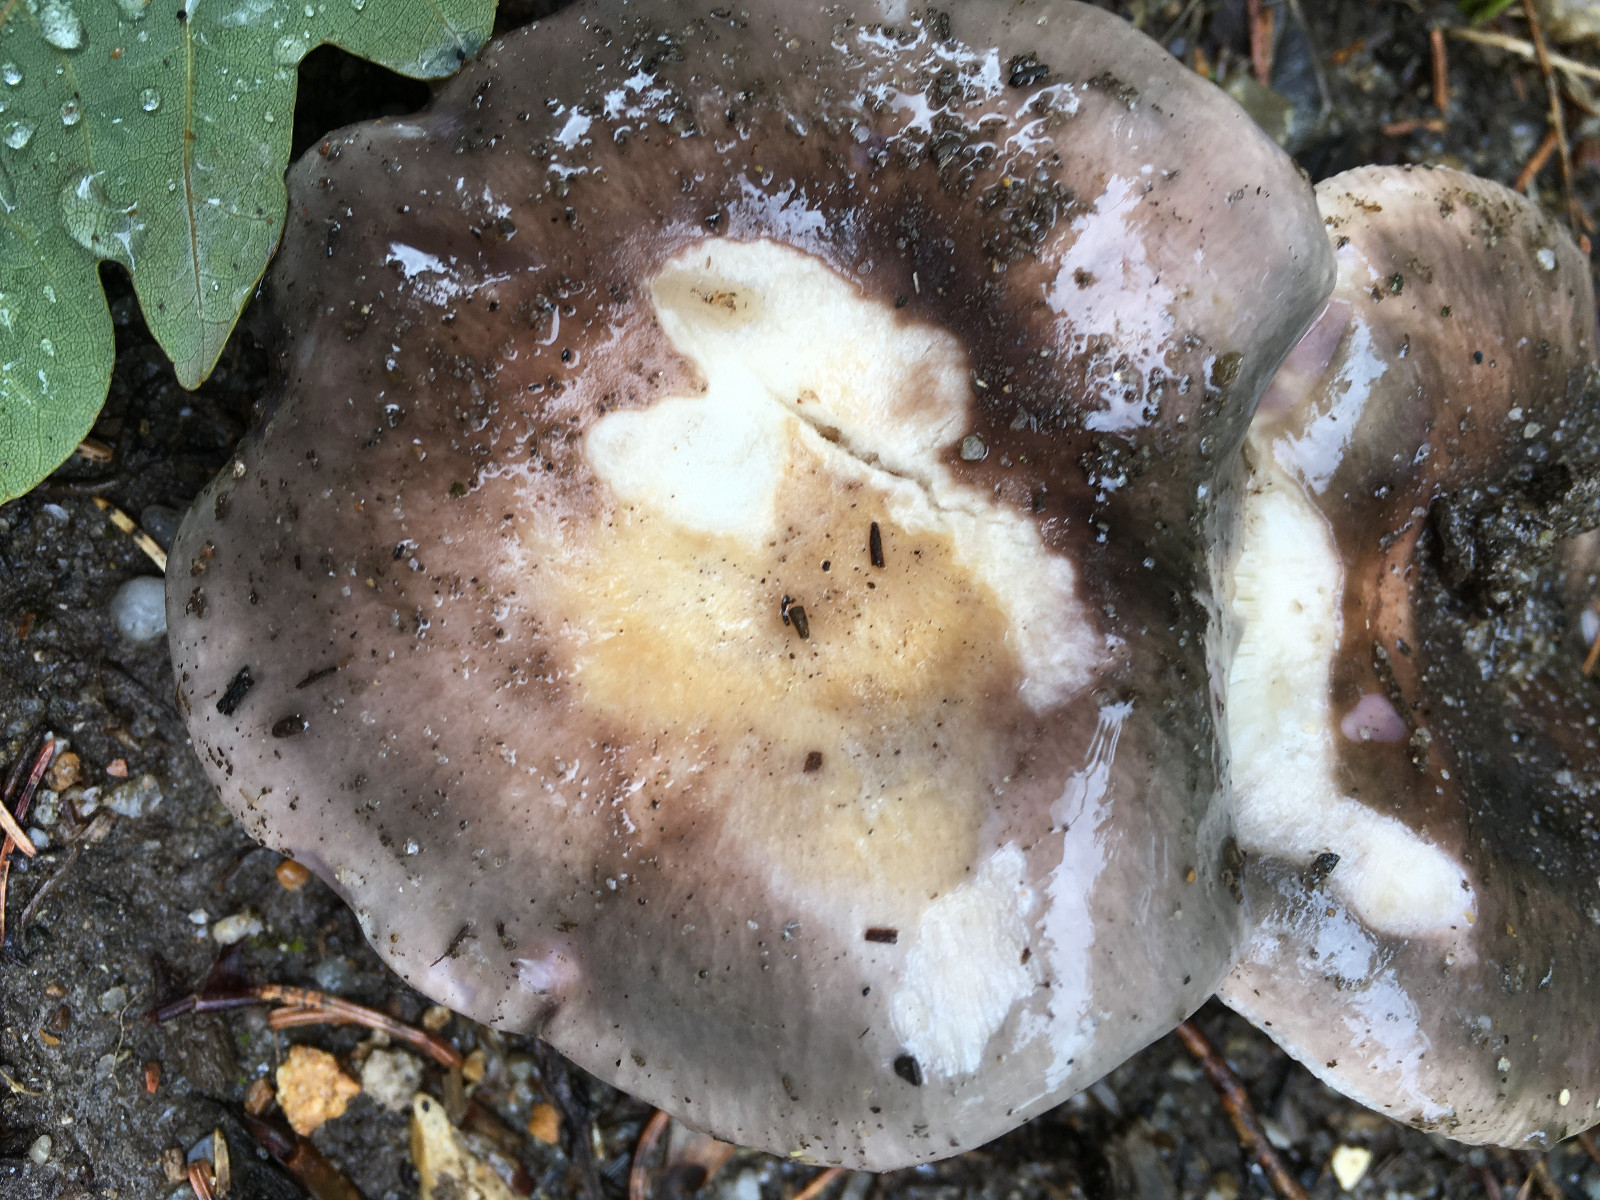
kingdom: Fungi
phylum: Basidiomycota
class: Agaricomycetes
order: Russulales
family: Russulaceae
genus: Russula
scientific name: Russula
